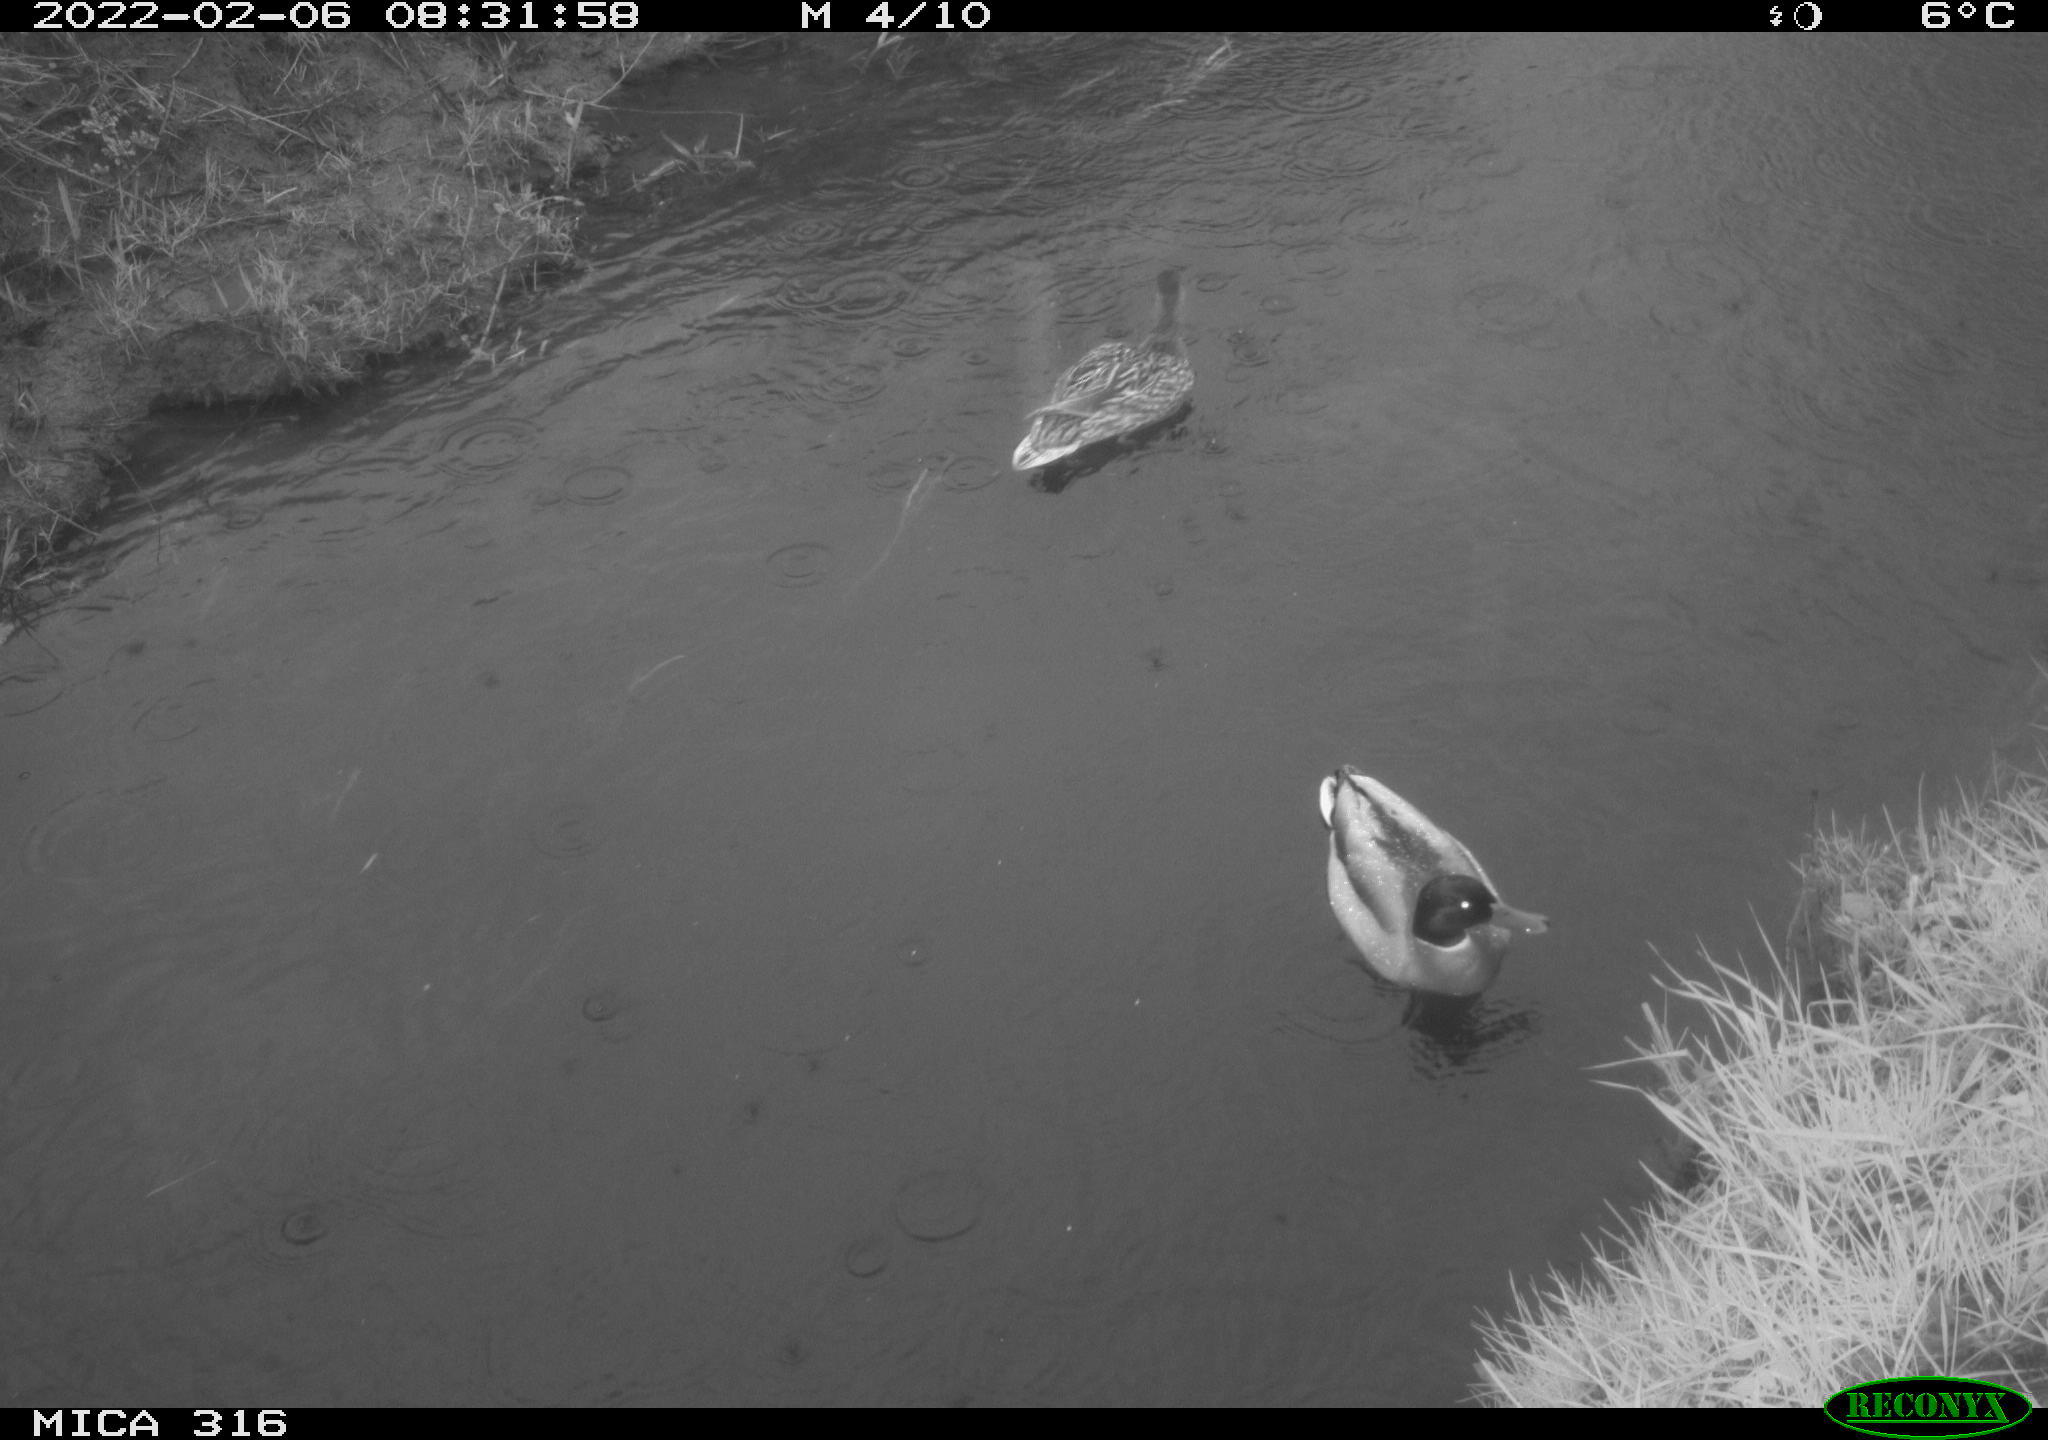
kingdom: Animalia
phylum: Chordata
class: Aves
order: Anseriformes
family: Anatidae
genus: Anas
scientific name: Anas platyrhynchos
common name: Mallard
